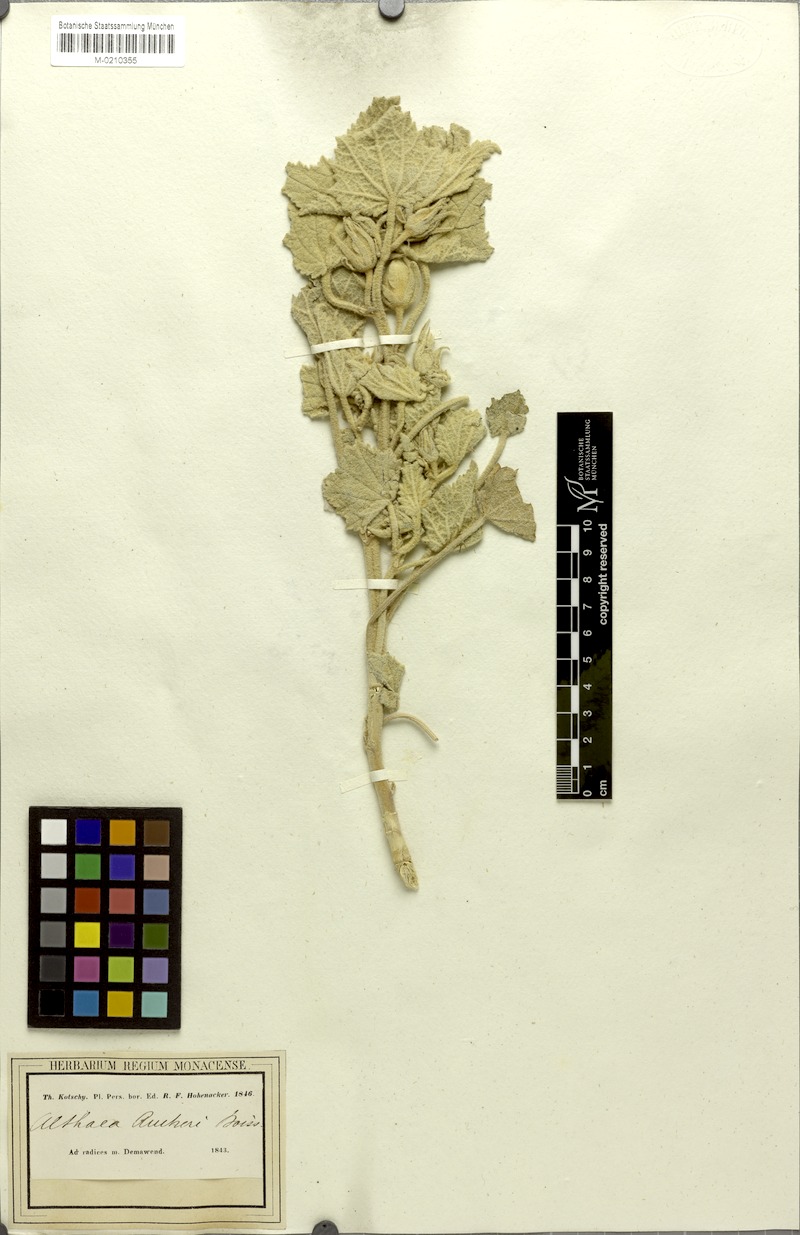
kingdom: Plantae
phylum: Tracheophyta
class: Magnoliopsida
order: Malvales
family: Malvaceae
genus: Alcea
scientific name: Alcea aucheri
